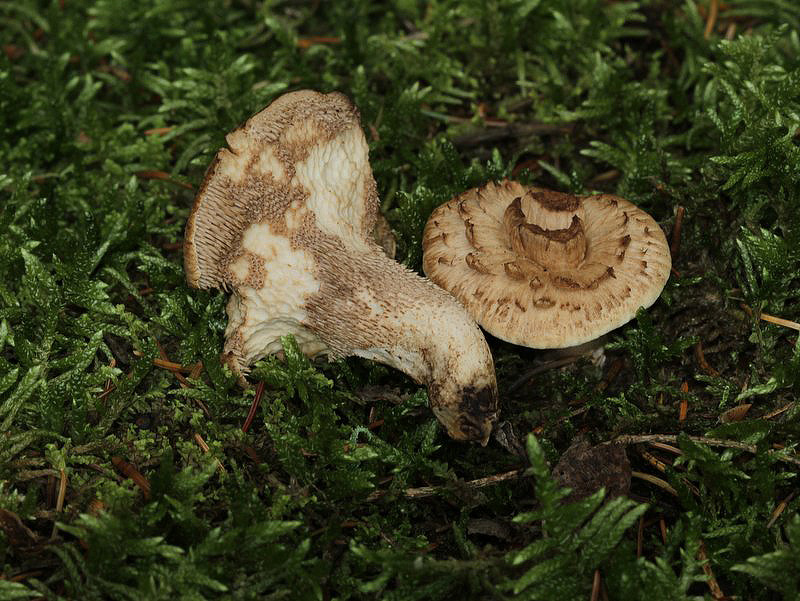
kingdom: Fungi
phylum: Basidiomycota
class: Agaricomycetes
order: Thelephorales
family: Bankeraceae
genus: Sarcodon
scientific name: Sarcodon imbricatus
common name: skællet kødpigsvamp
